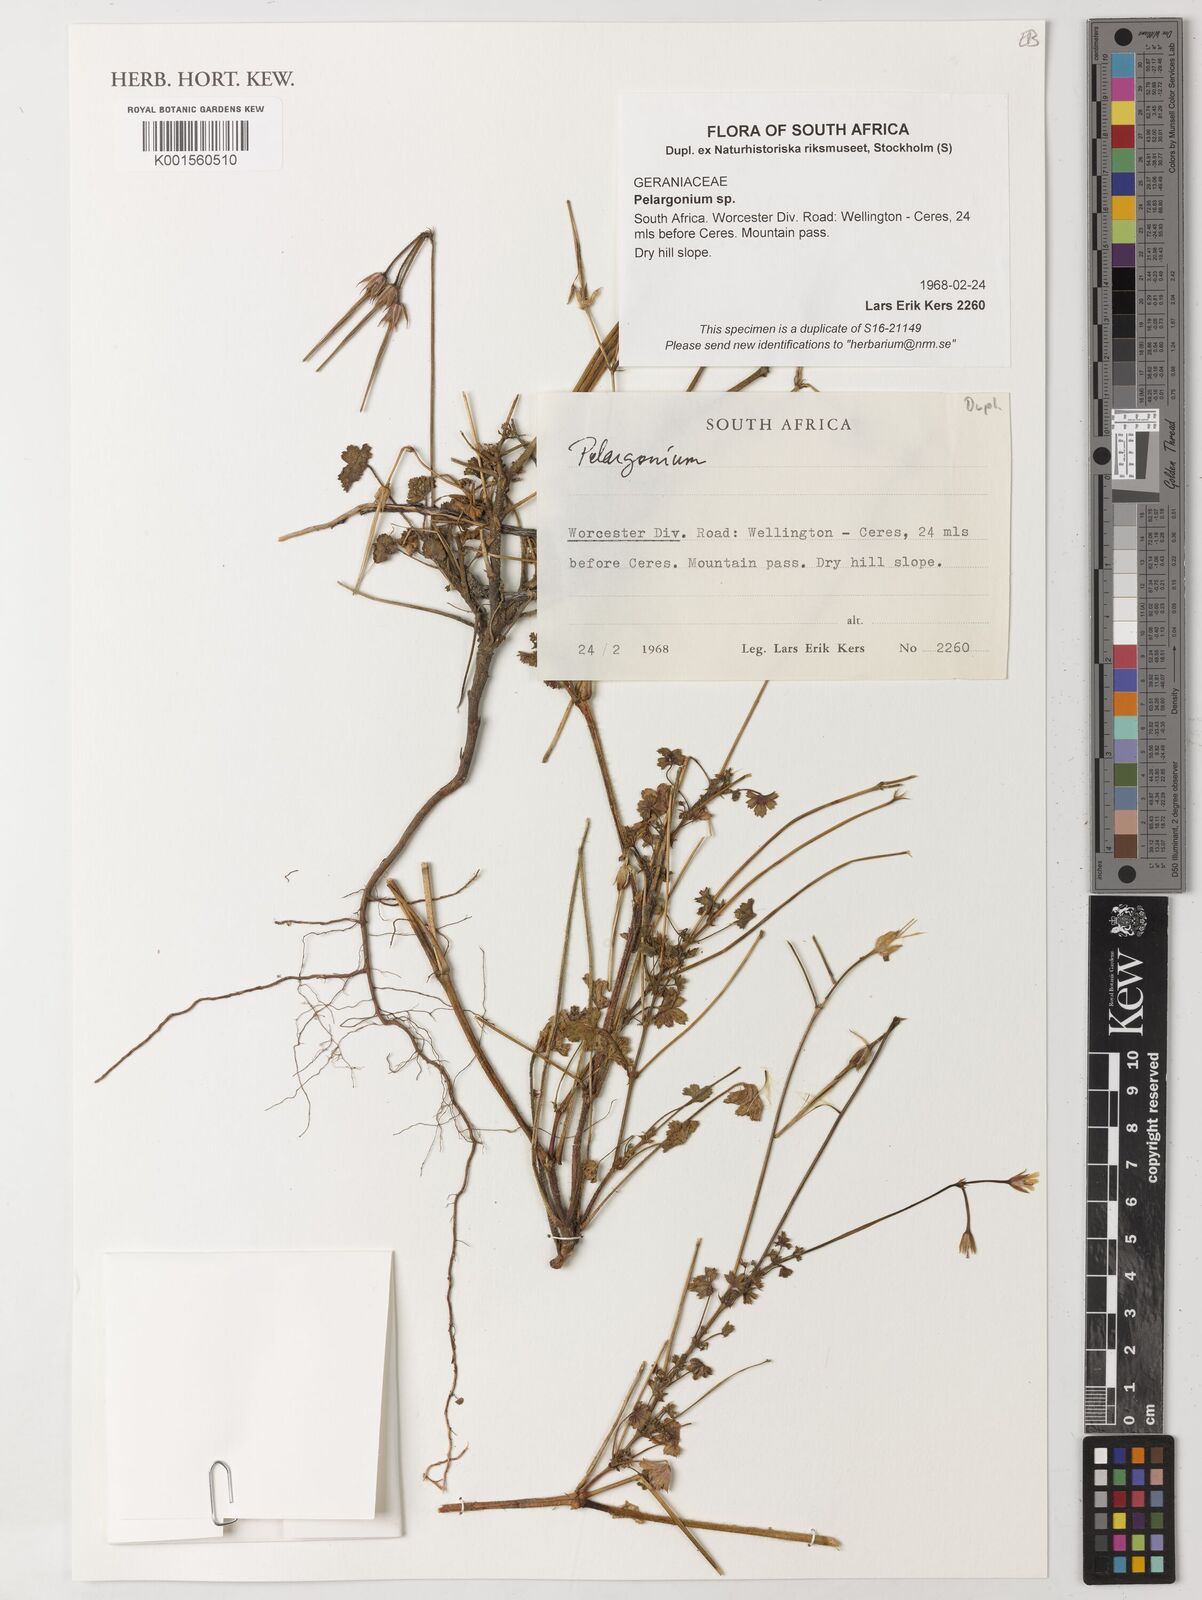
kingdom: Plantae
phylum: Tracheophyta
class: Magnoliopsida
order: Geraniales
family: Geraniaceae
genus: Pelargonium
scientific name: Pelargonium
